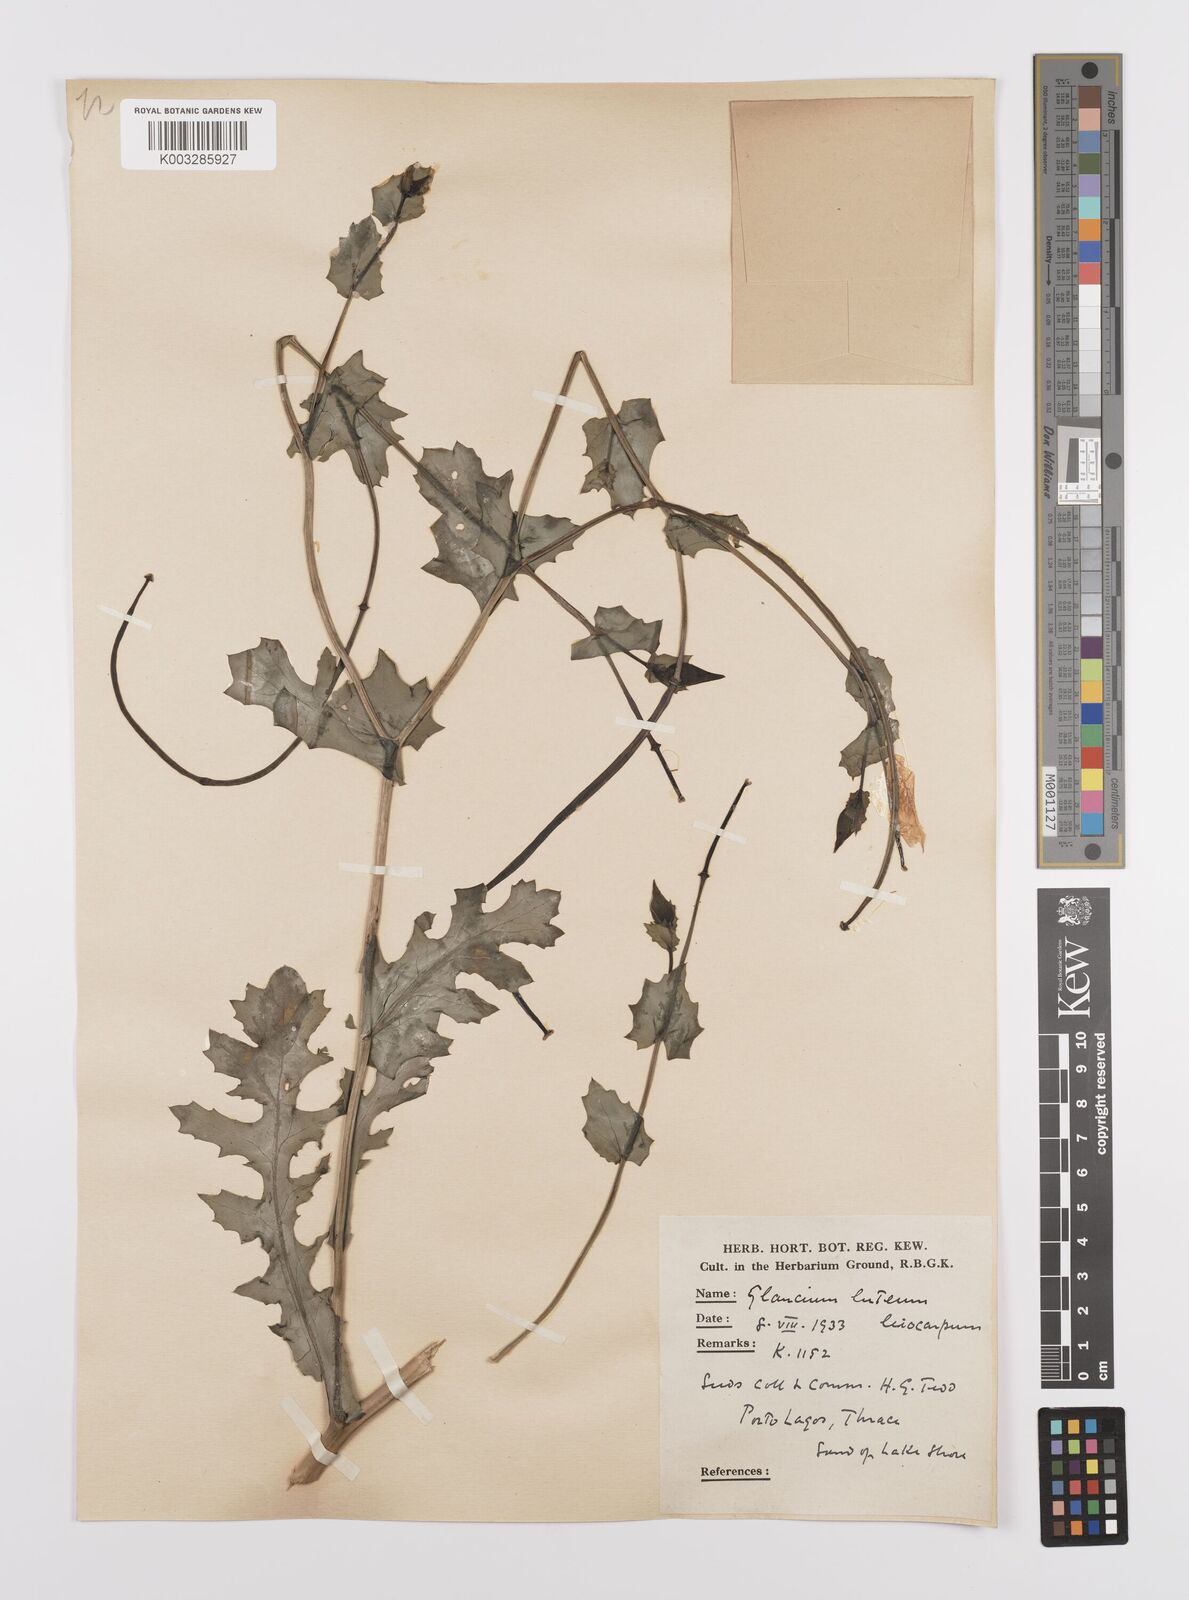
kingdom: Plantae
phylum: Tracheophyta
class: Magnoliopsida
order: Ranunculales
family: Papaveraceae
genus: Glaucium
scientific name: Glaucium flavum
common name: Yellow horned-poppy
